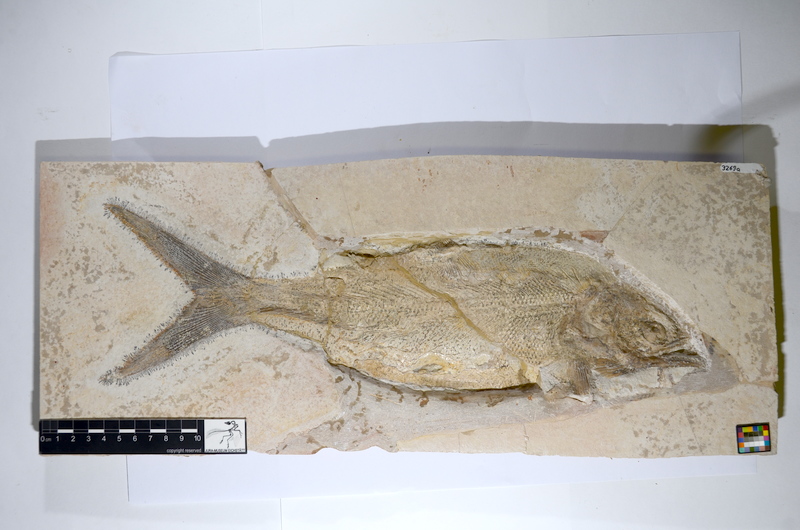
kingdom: Animalia
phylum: Chordata
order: Amiiformes
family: Caturidae
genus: Caturus
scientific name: Caturus furcatus
